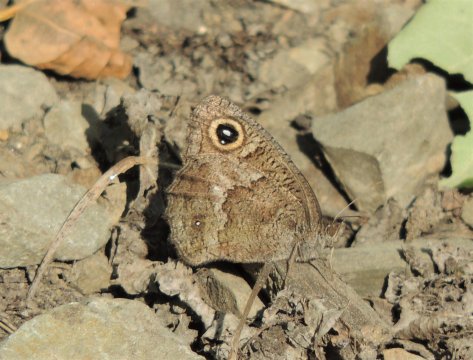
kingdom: Animalia
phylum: Arthropoda
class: Insecta
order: Lepidoptera
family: Nymphalidae
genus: Cercyonis
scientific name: Cercyonis sthenele
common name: Great Basin Wood-Nymph
